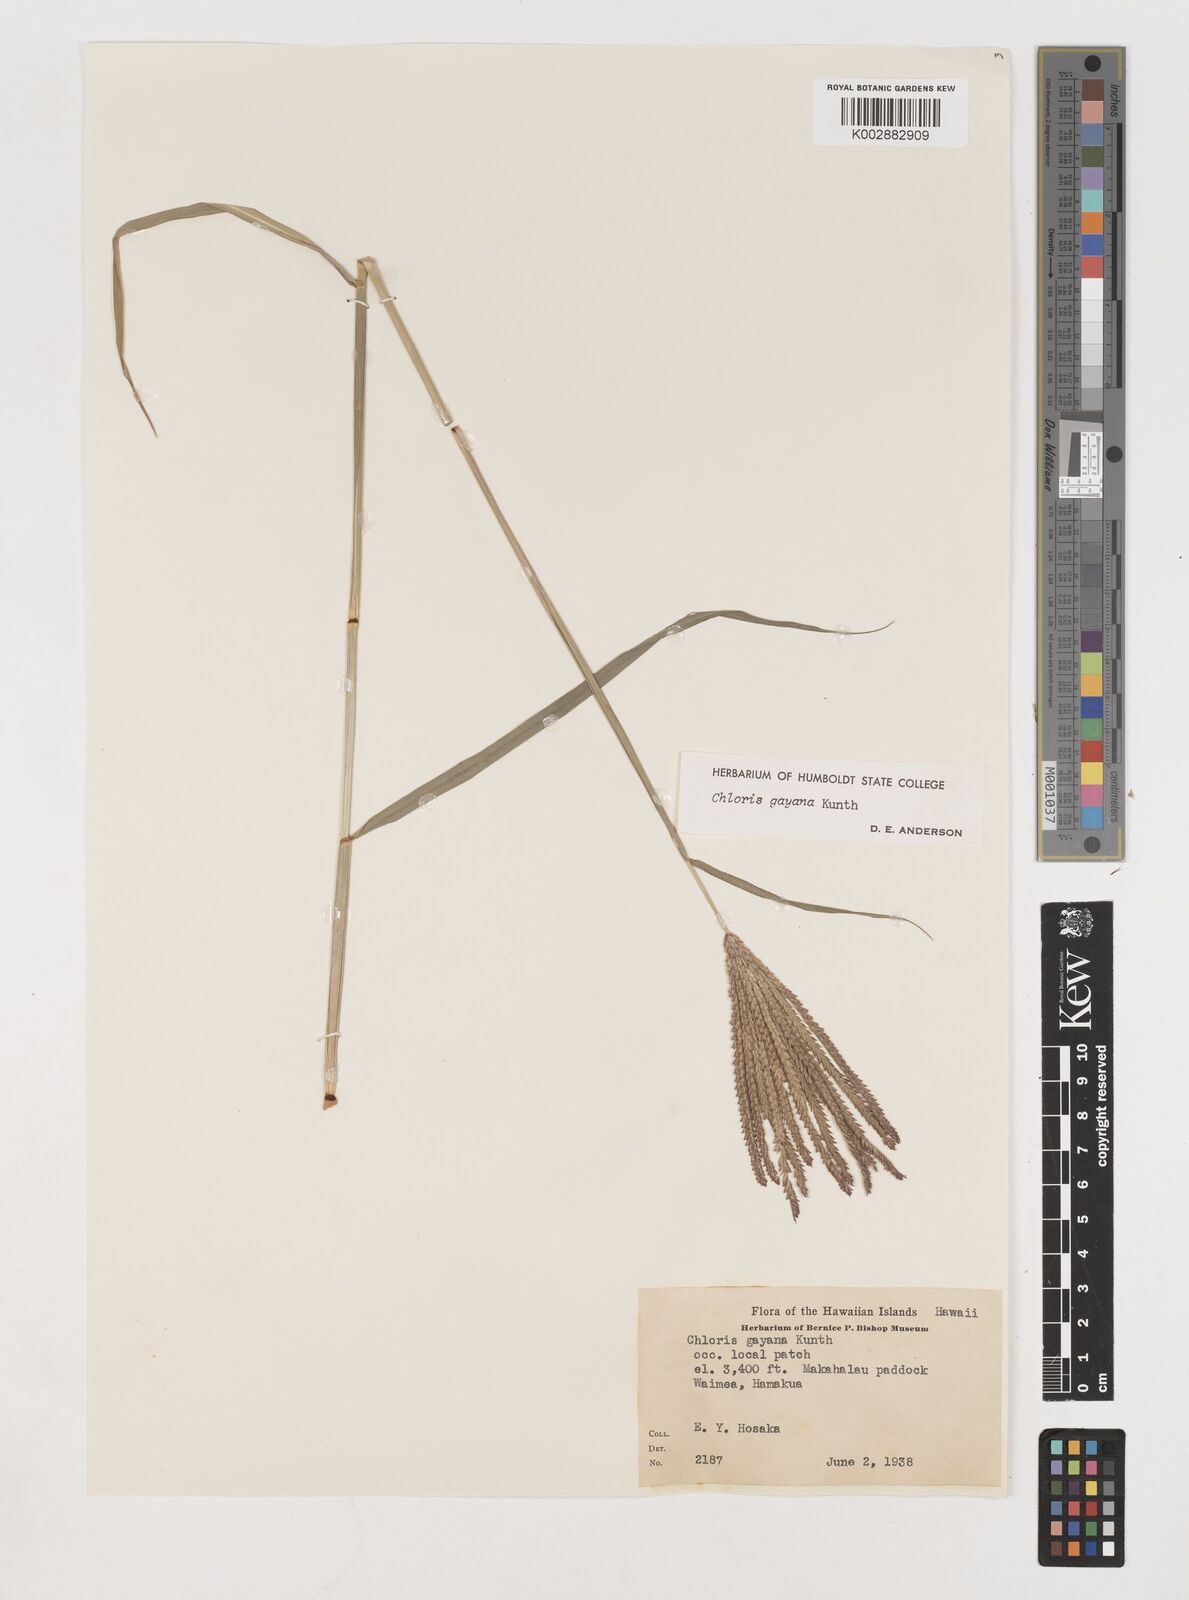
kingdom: Plantae
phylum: Tracheophyta
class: Liliopsida
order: Poales
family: Poaceae
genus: Chloris
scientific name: Chloris gayana
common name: Rhodes grass
